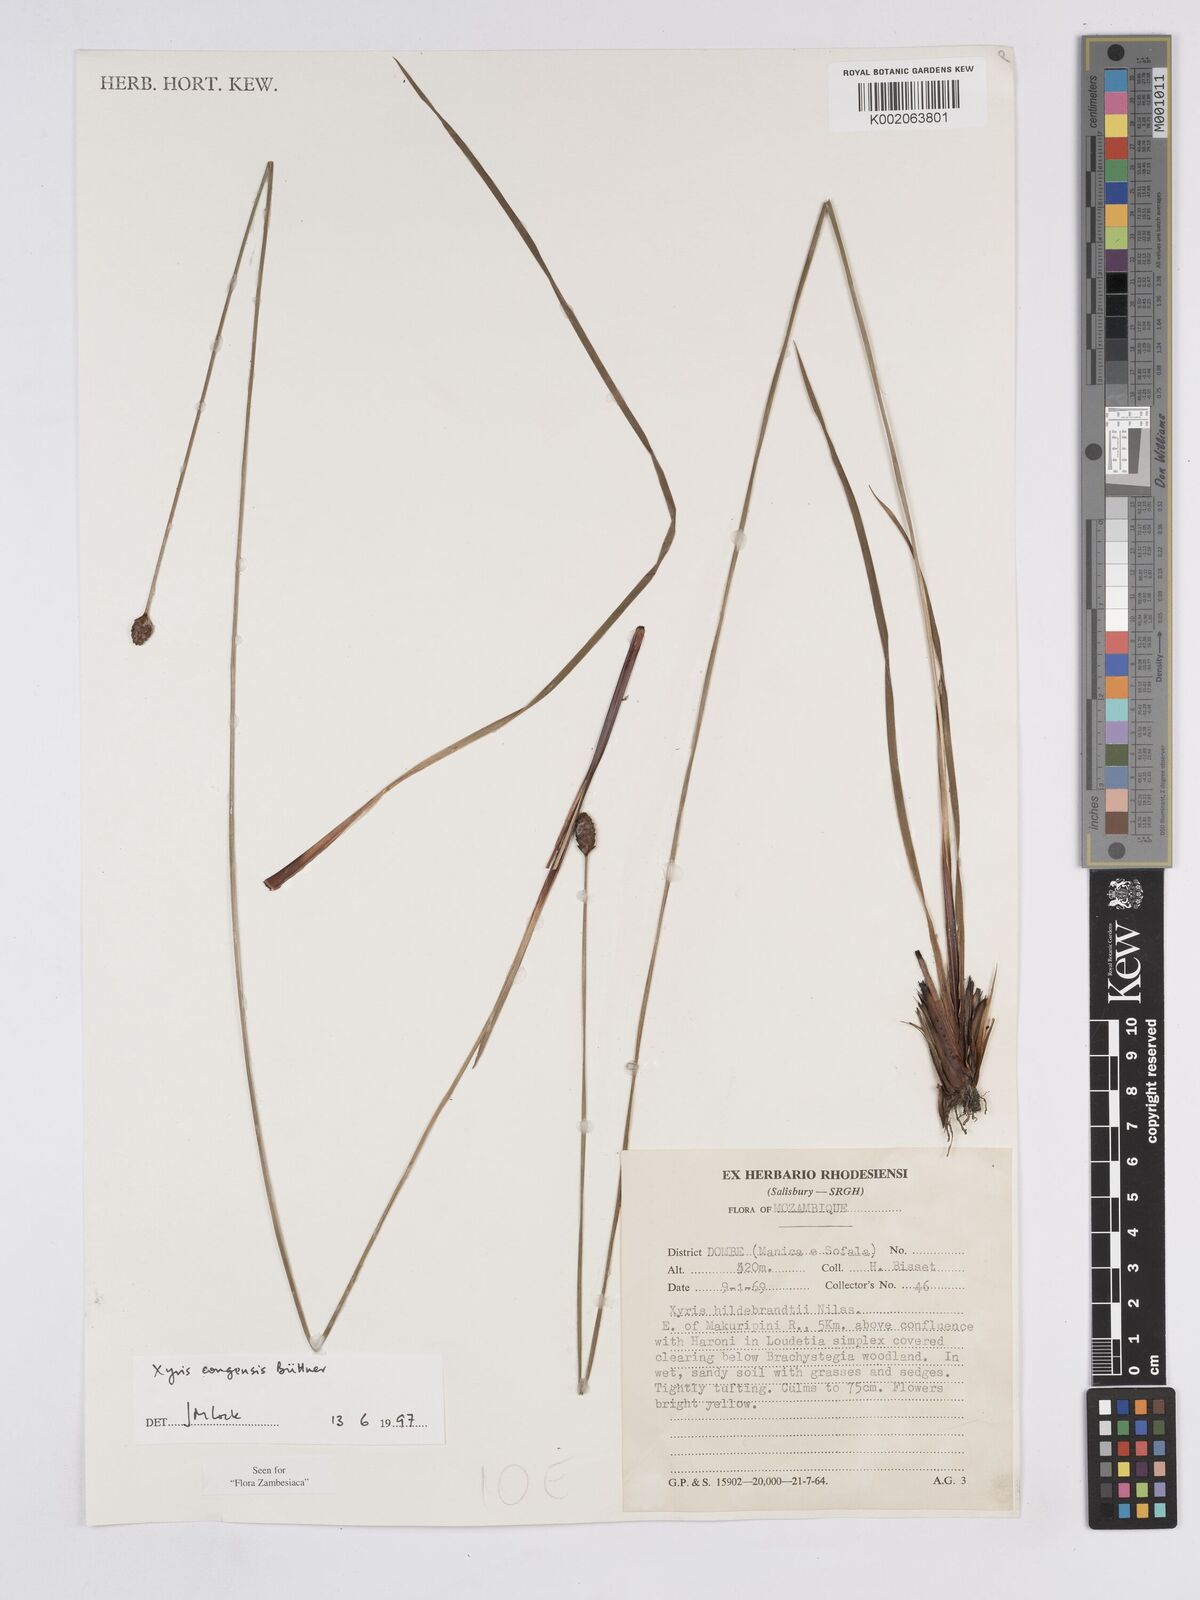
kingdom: Plantae
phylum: Tracheophyta
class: Liliopsida
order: Poales
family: Xyridaceae
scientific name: Xyridaceae
